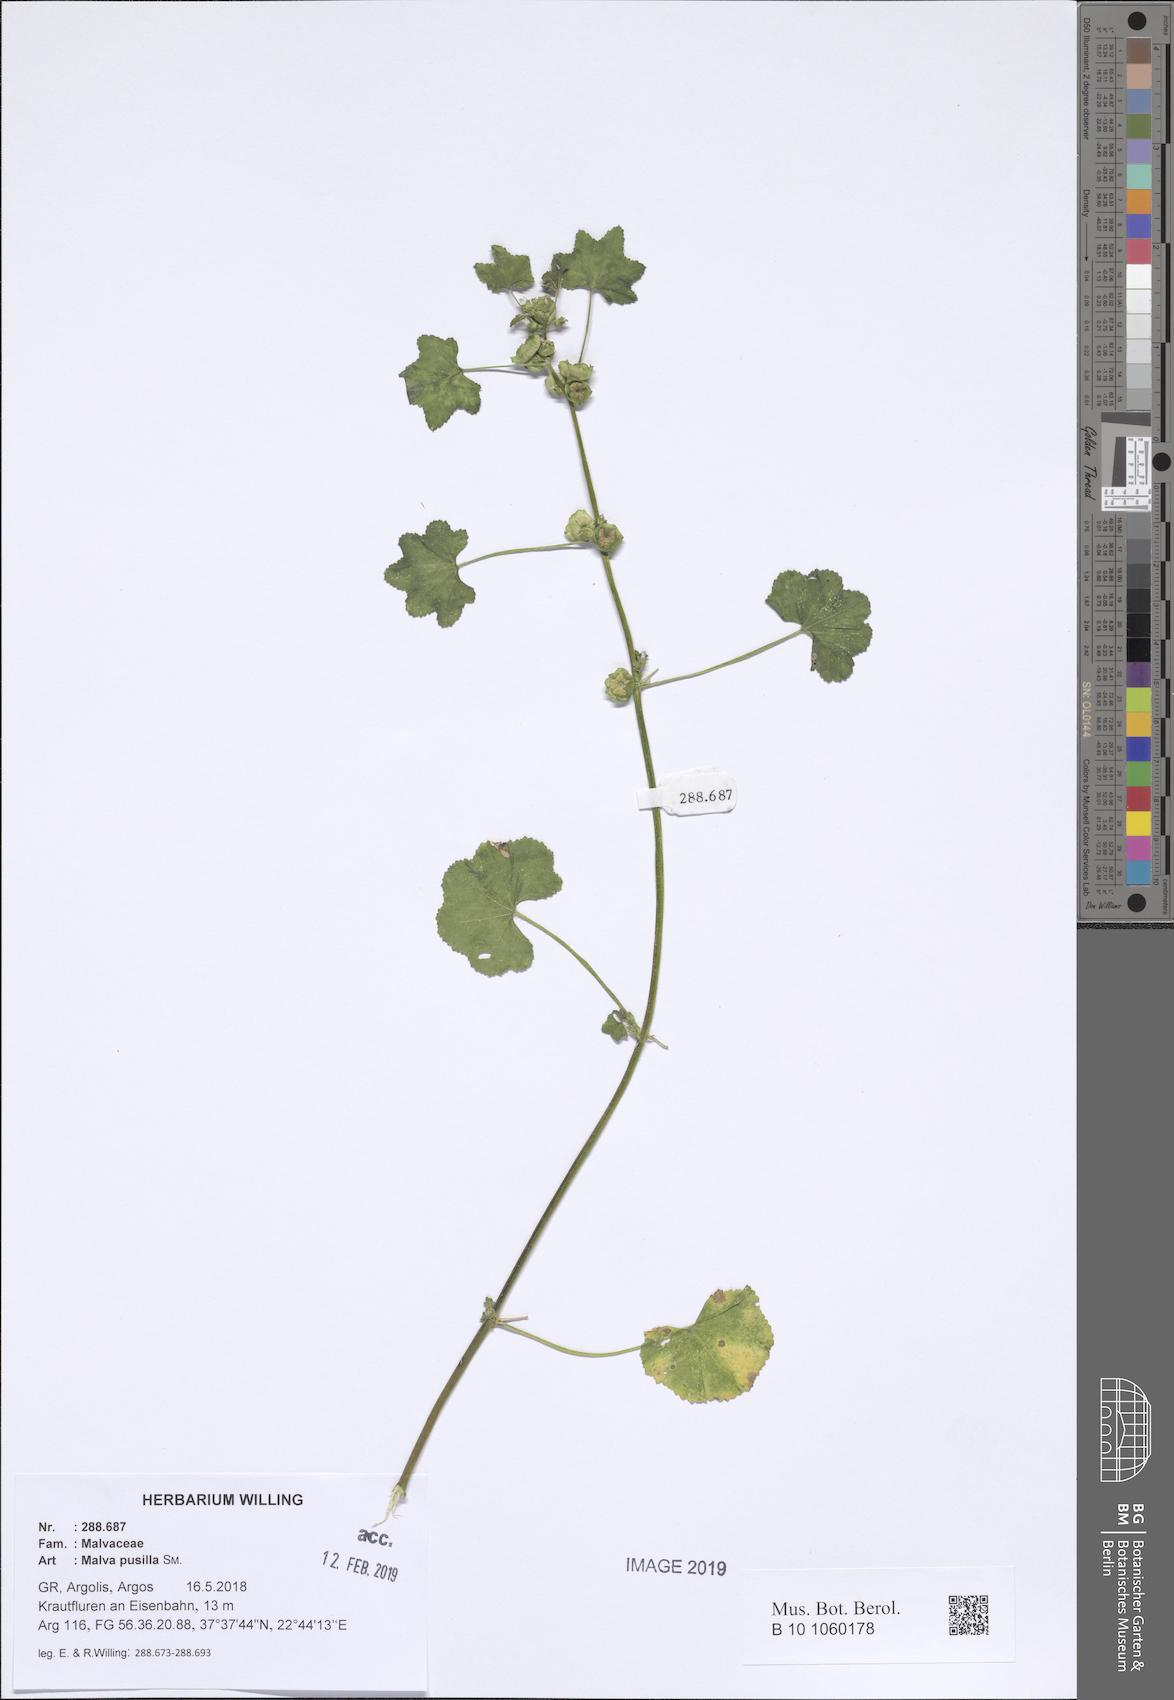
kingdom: Plantae
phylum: Tracheophyta
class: Magnoliopsida
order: Malvales
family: Malvaceae
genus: Malva
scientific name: Malva parviflora
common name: Least mallow
